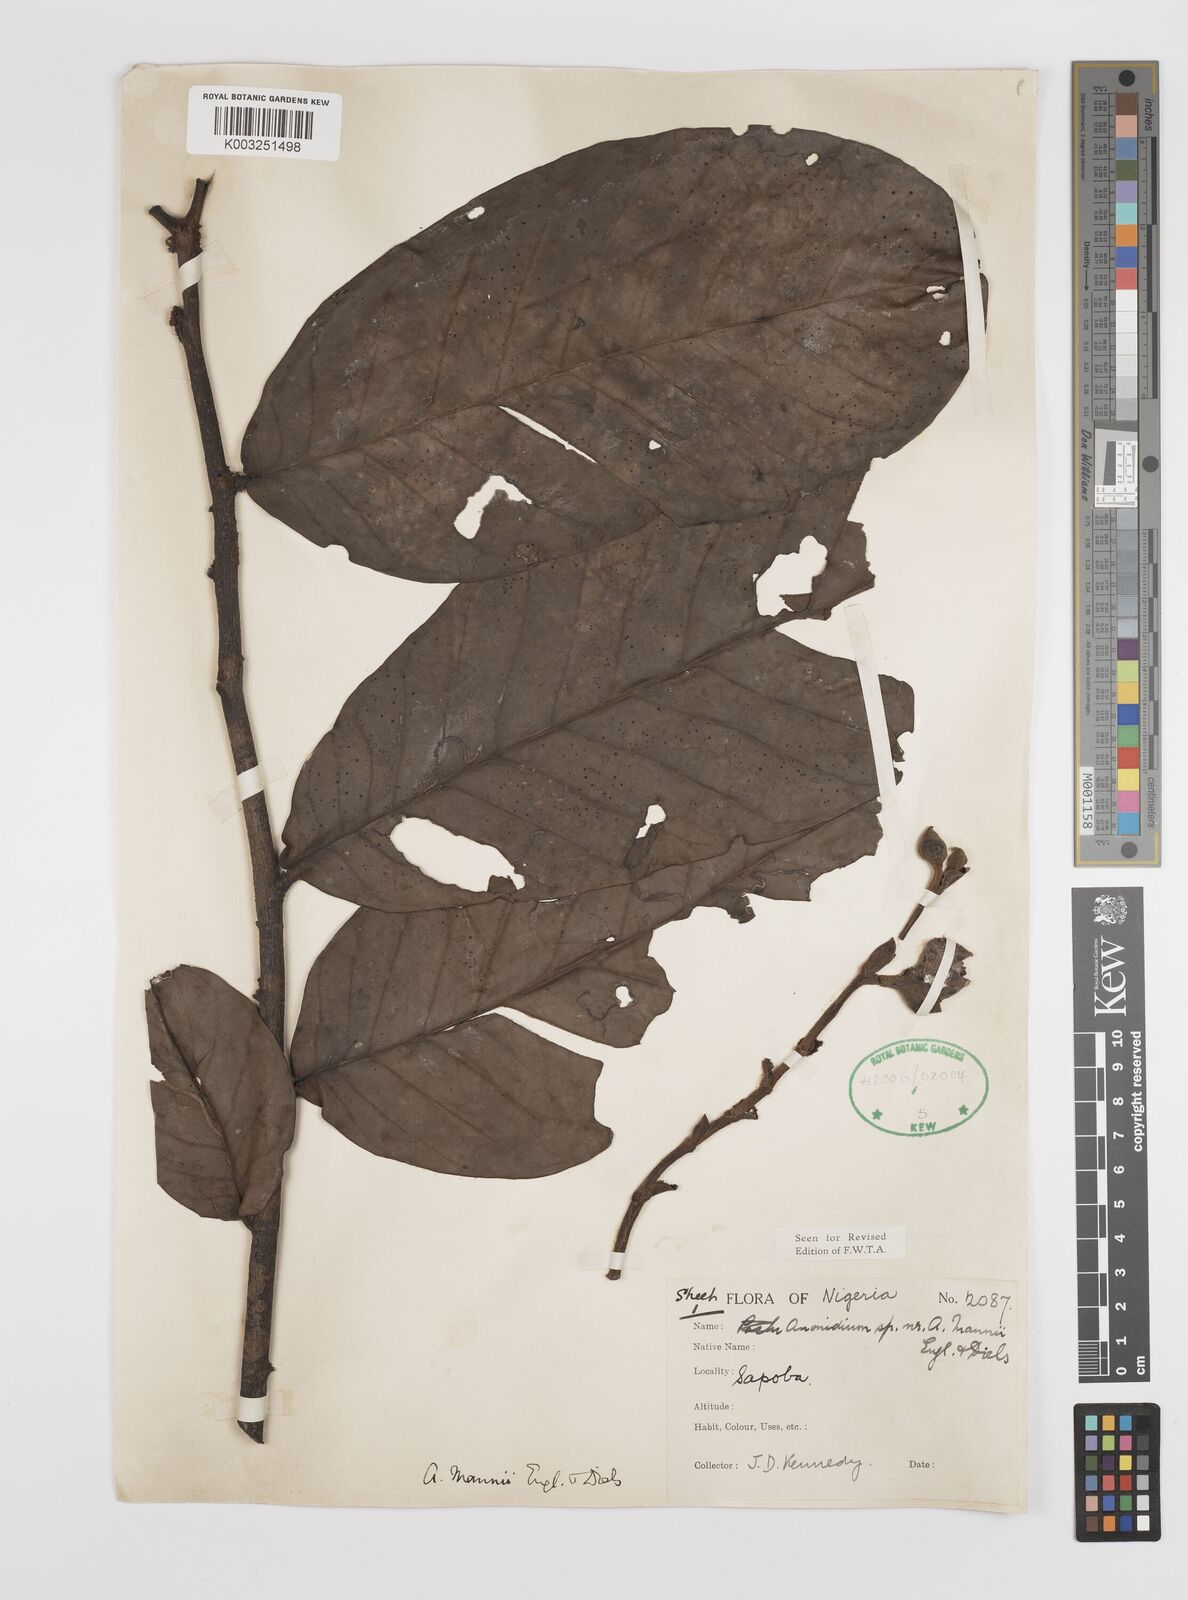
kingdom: Plantae
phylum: Tracheophyta
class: Magnoliopsida
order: Magnoliales
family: Annonaceae
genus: Anonidium
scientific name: Anonidium mannii
